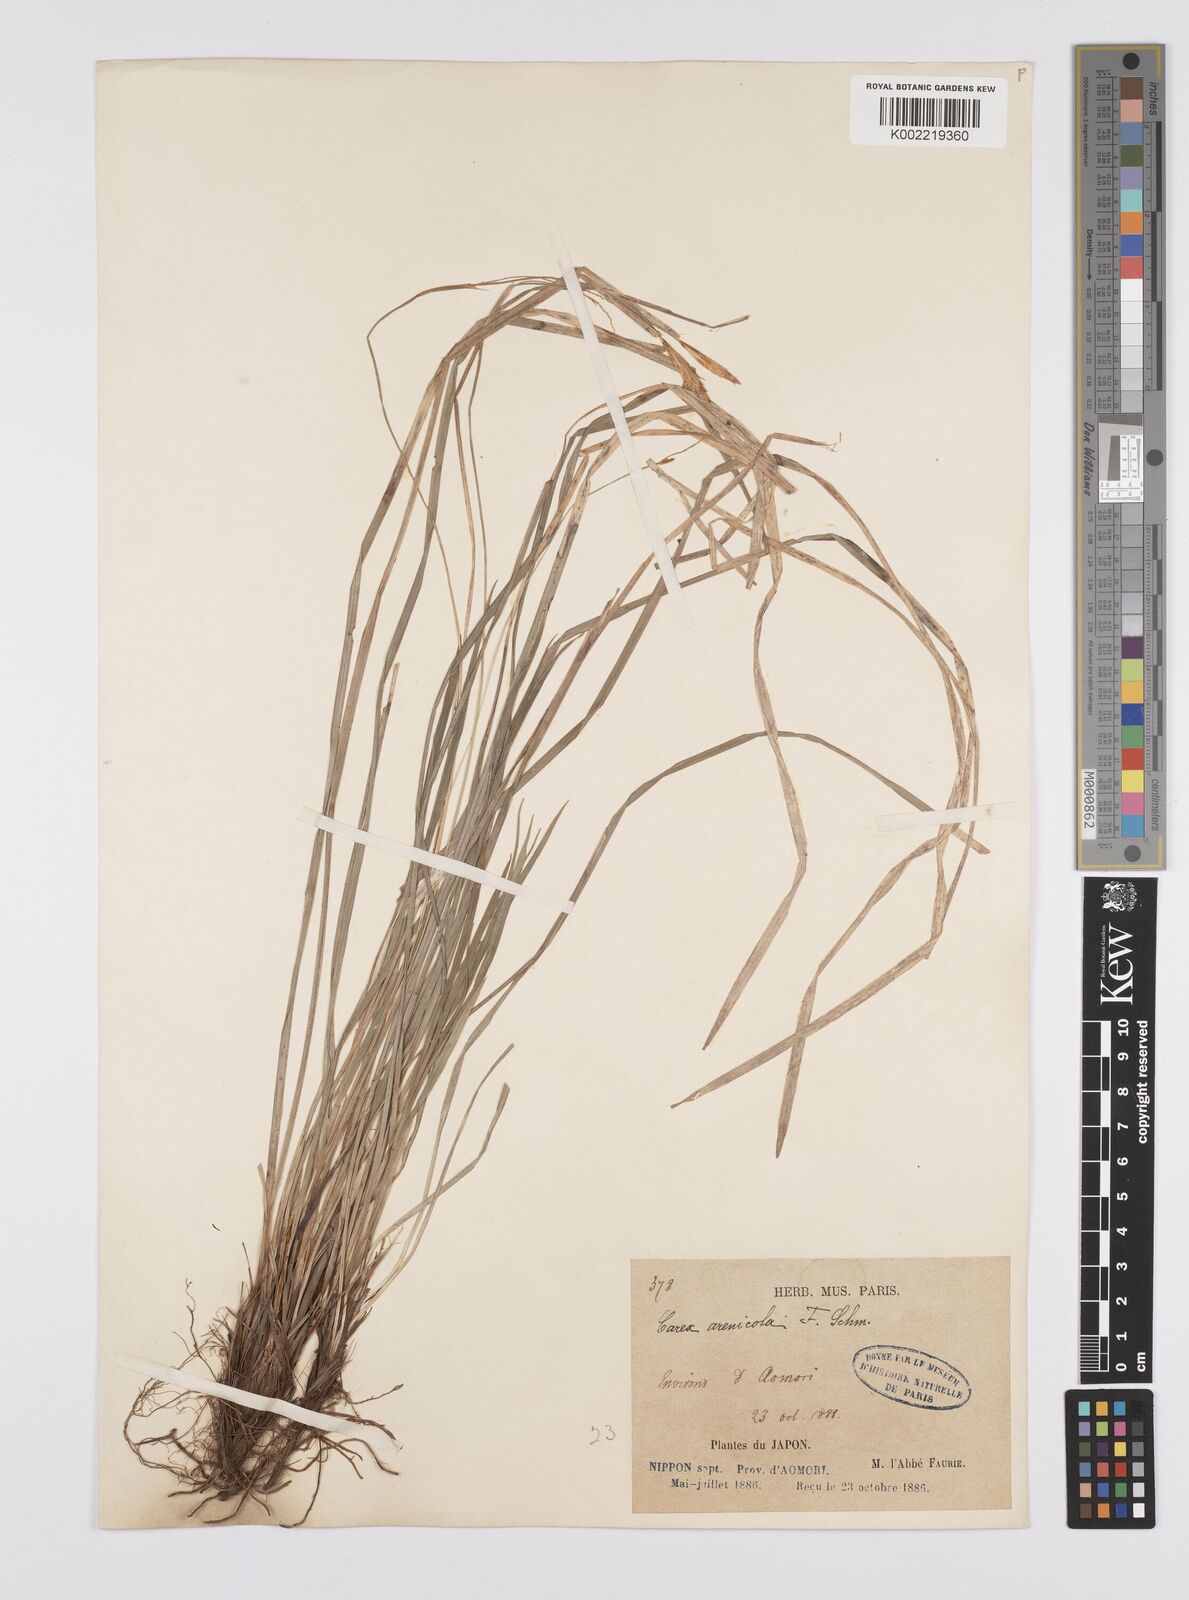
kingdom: Plantae
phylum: Tracheophyta
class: Liliopsida
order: Poales
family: Cyperaceae
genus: Carex
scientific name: Carex arenicola
